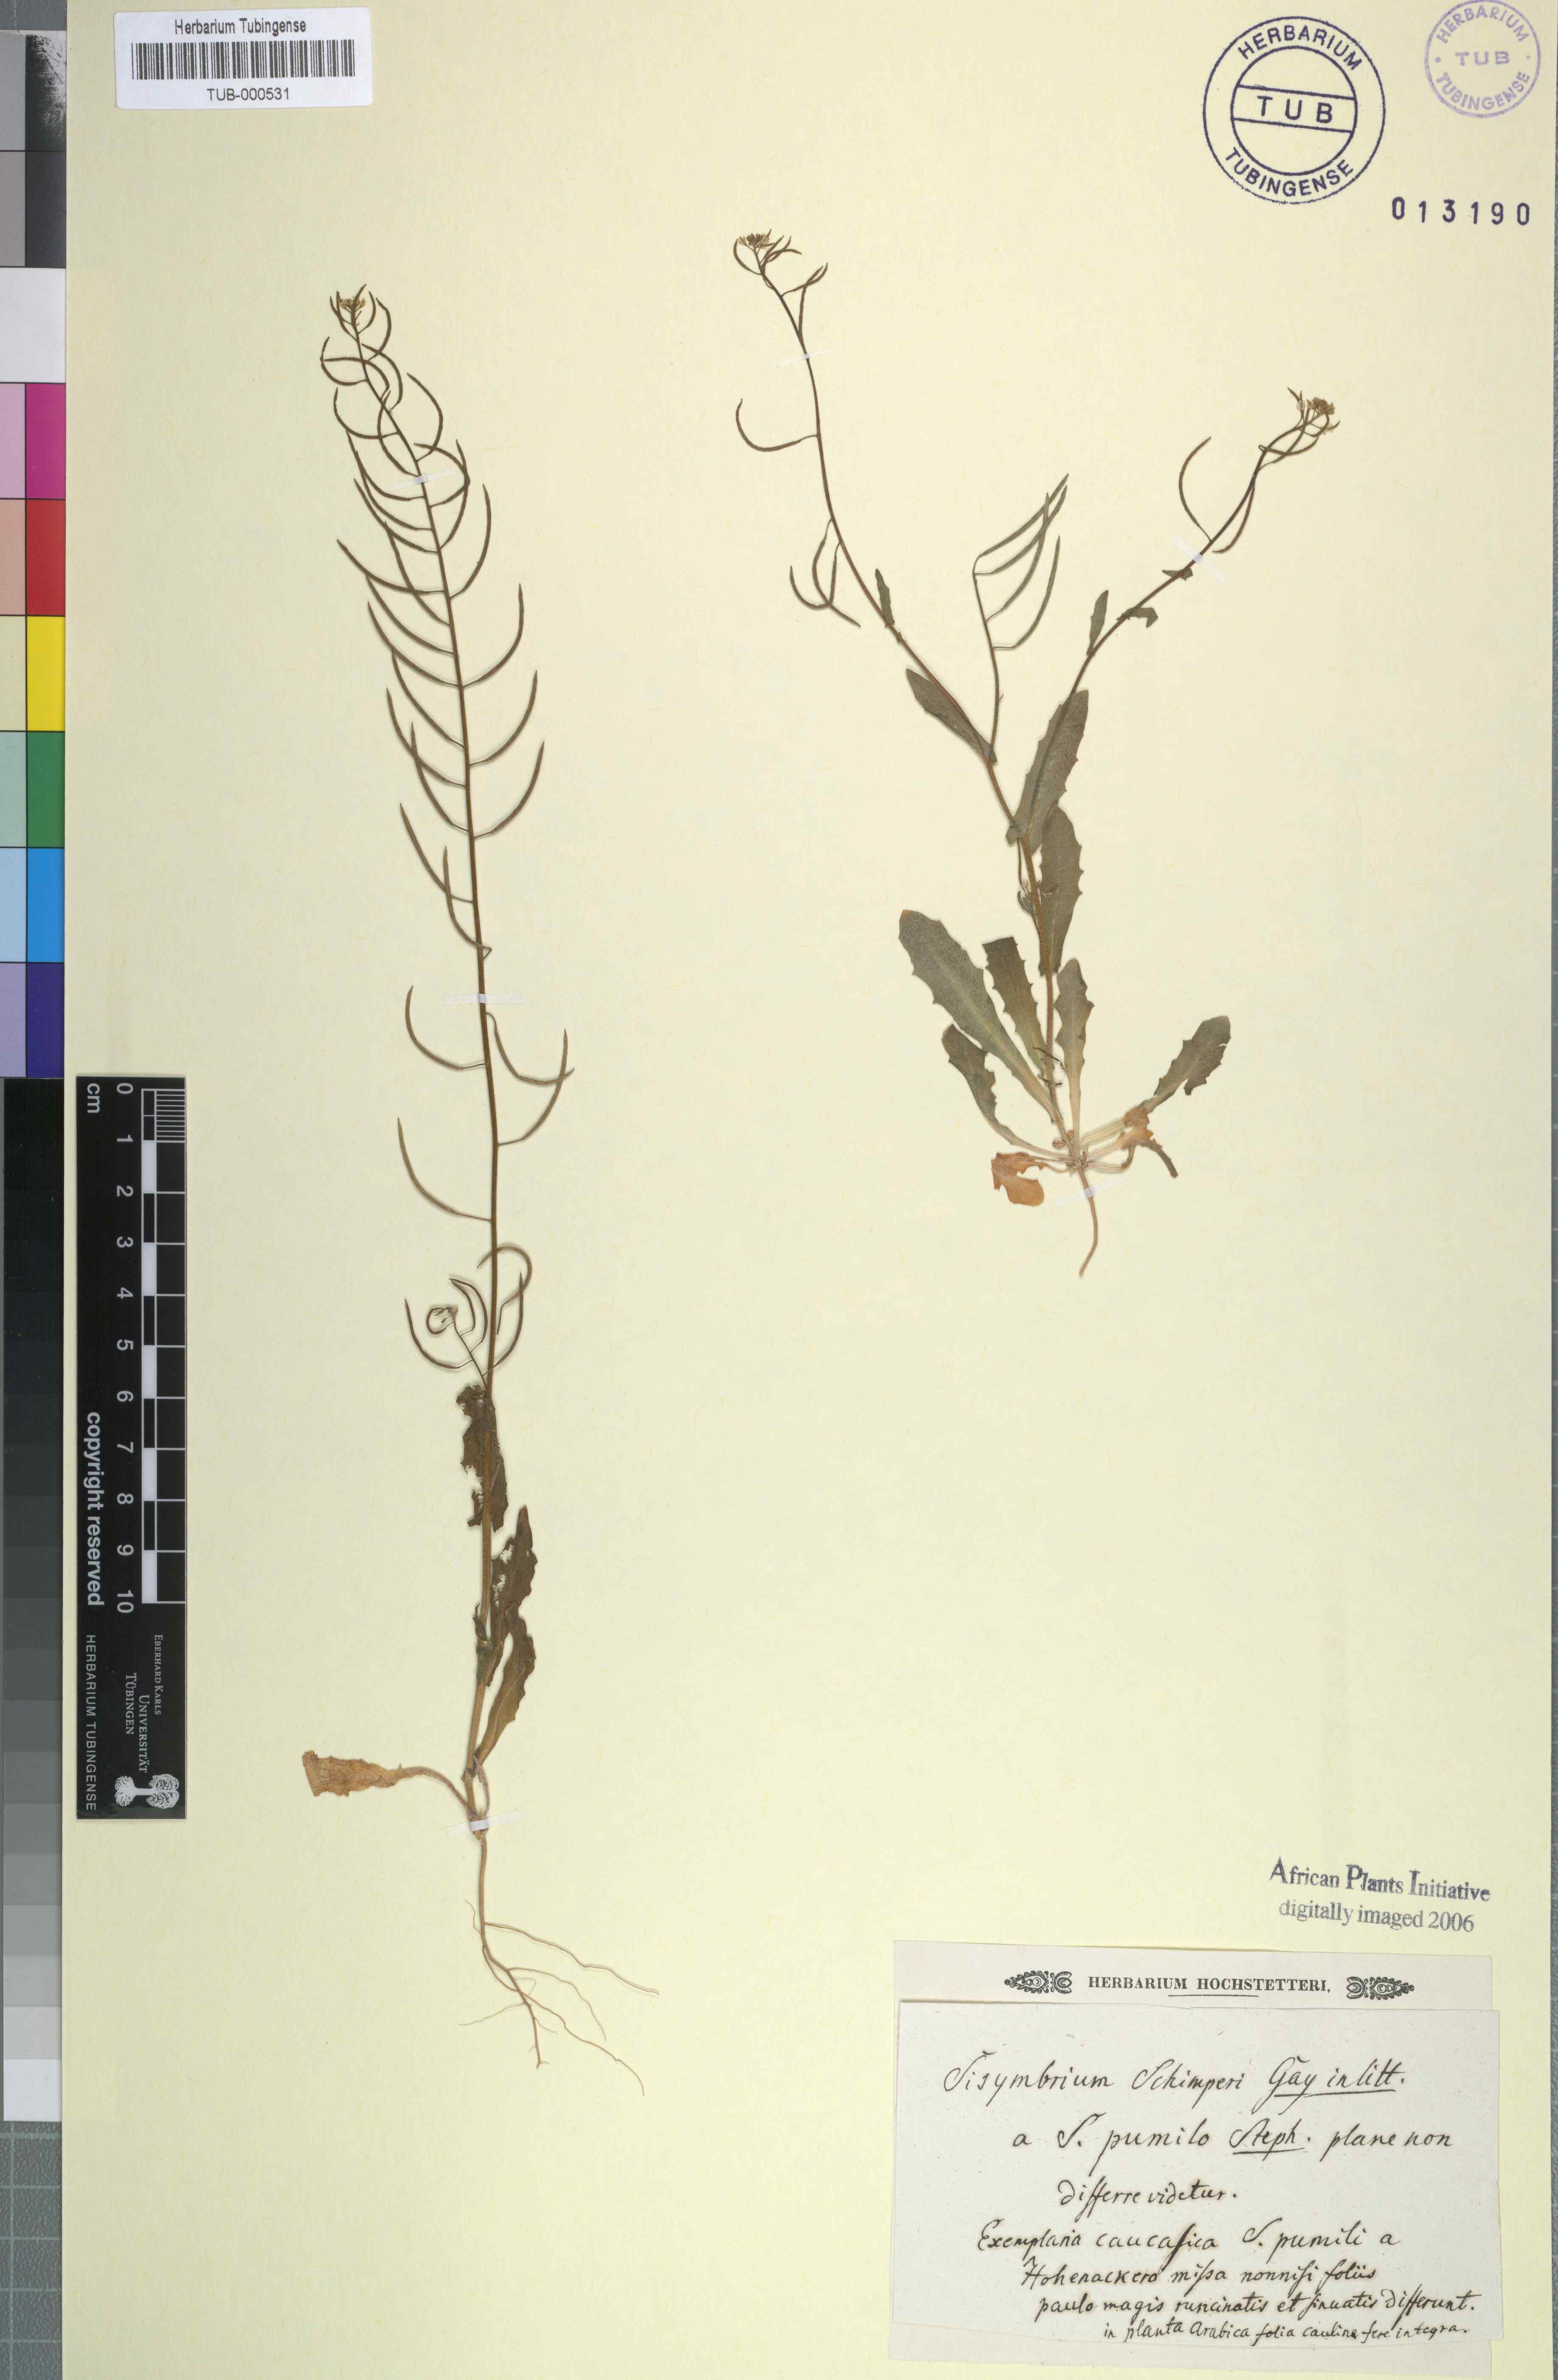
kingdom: Plantae
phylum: Tracheophyta
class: Magnoliopsida
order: Brassicales
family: Brassicaceae
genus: Sisymbrium
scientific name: Sisymbrium pumilum
